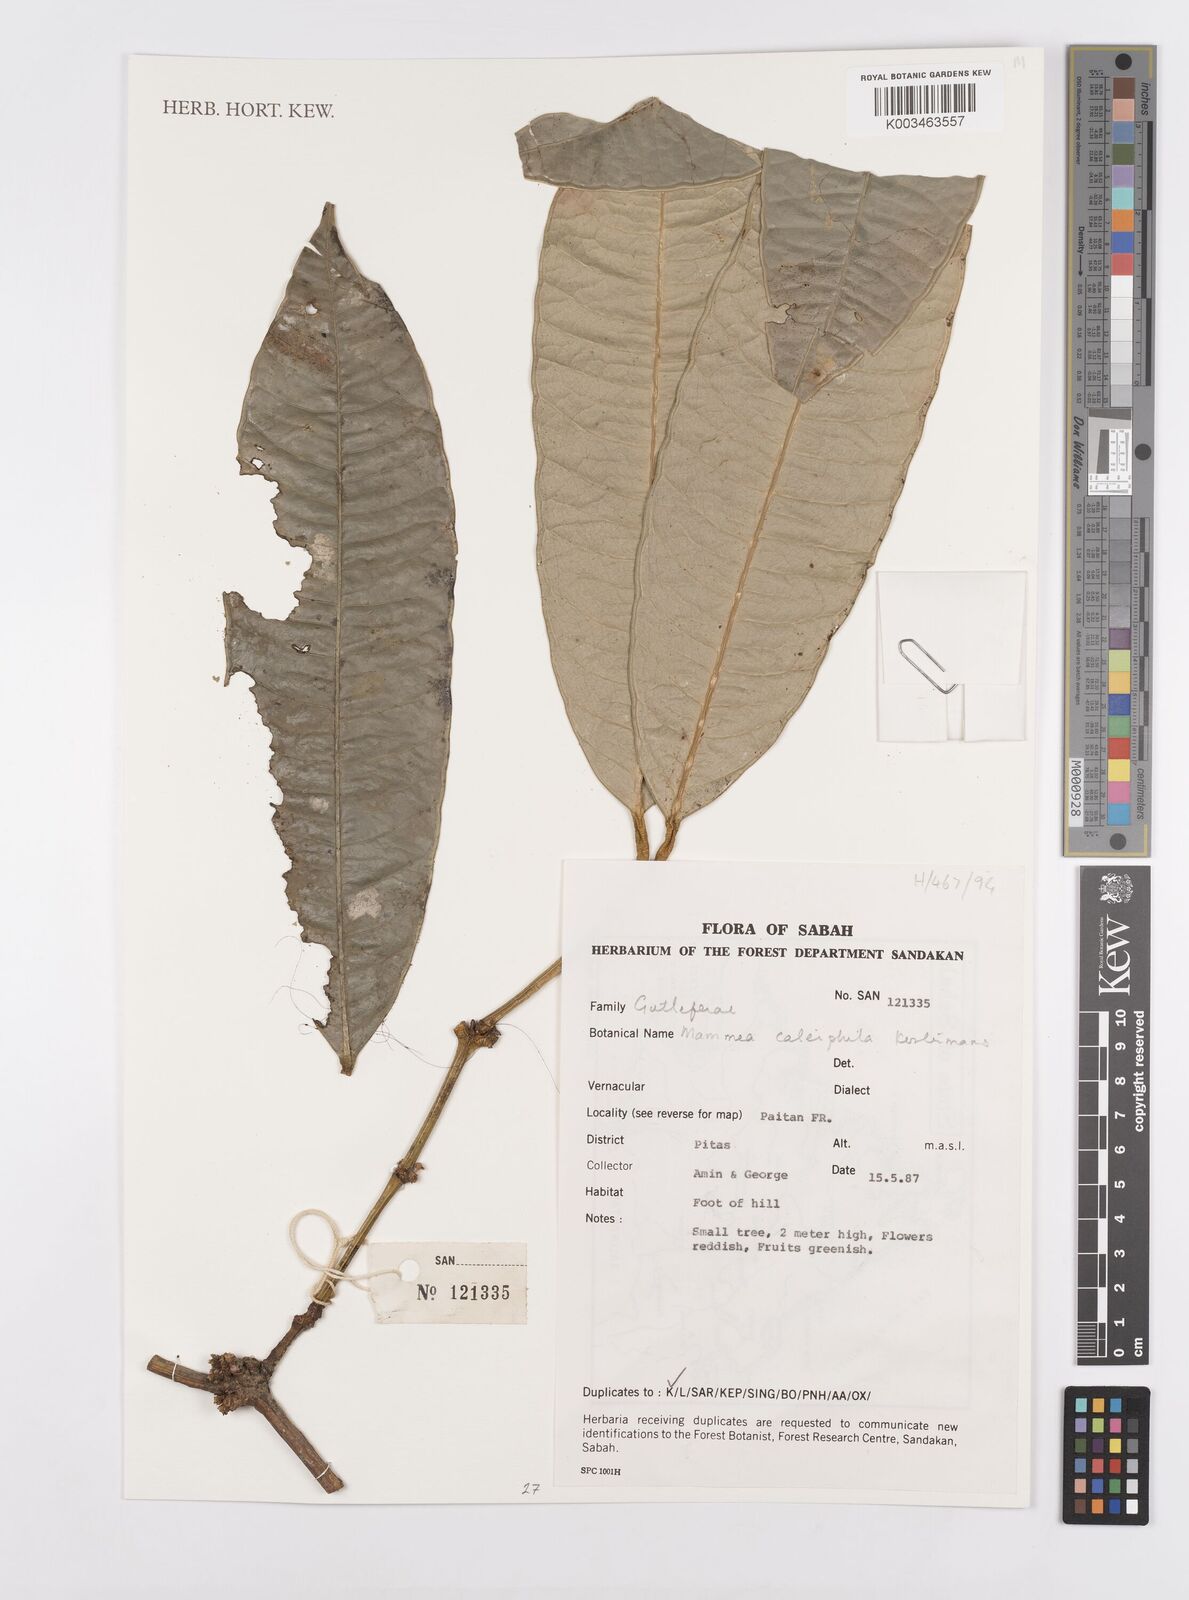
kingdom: Plantae
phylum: Tracheophyta
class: Magnoliopsida
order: Malpighiales
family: Calophyllaceae
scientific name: Calophyllaceae
